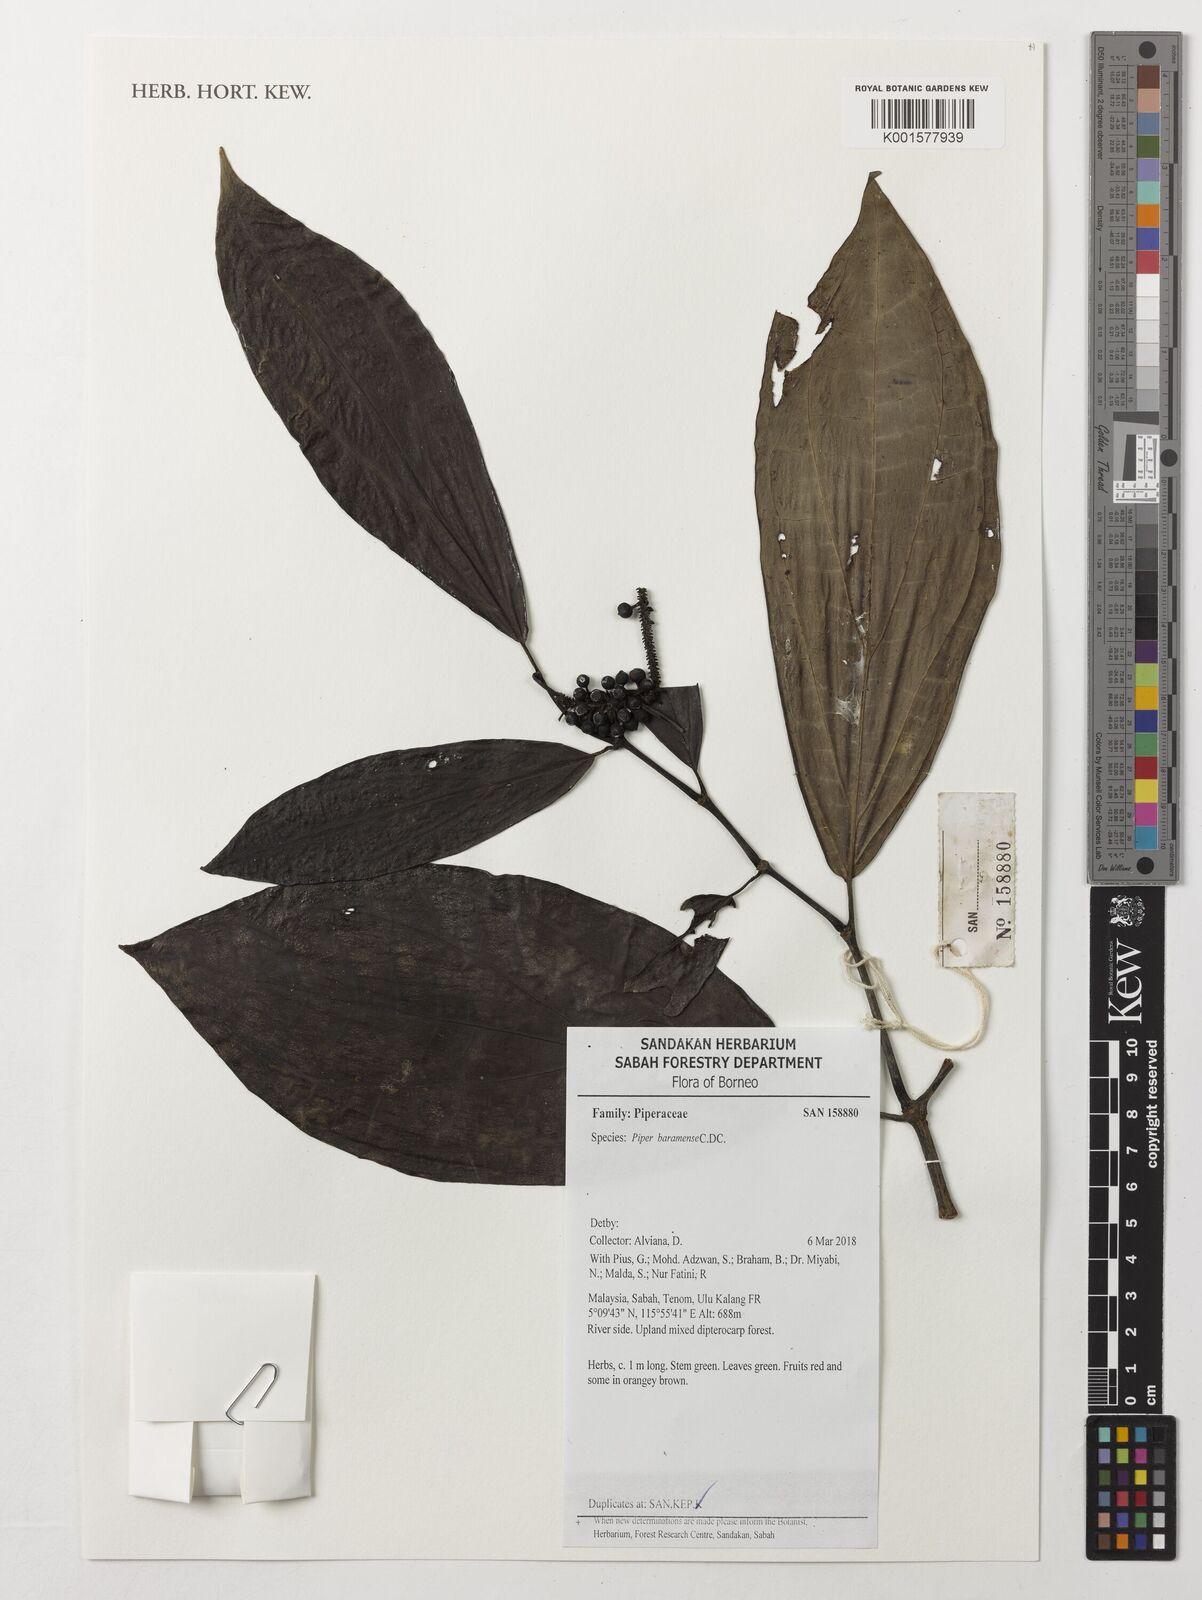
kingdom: Plantae
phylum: Tracheophyta
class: Magnoliopsida
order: Piperales
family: Piperaceae
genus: Piper
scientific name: Piper baramense
